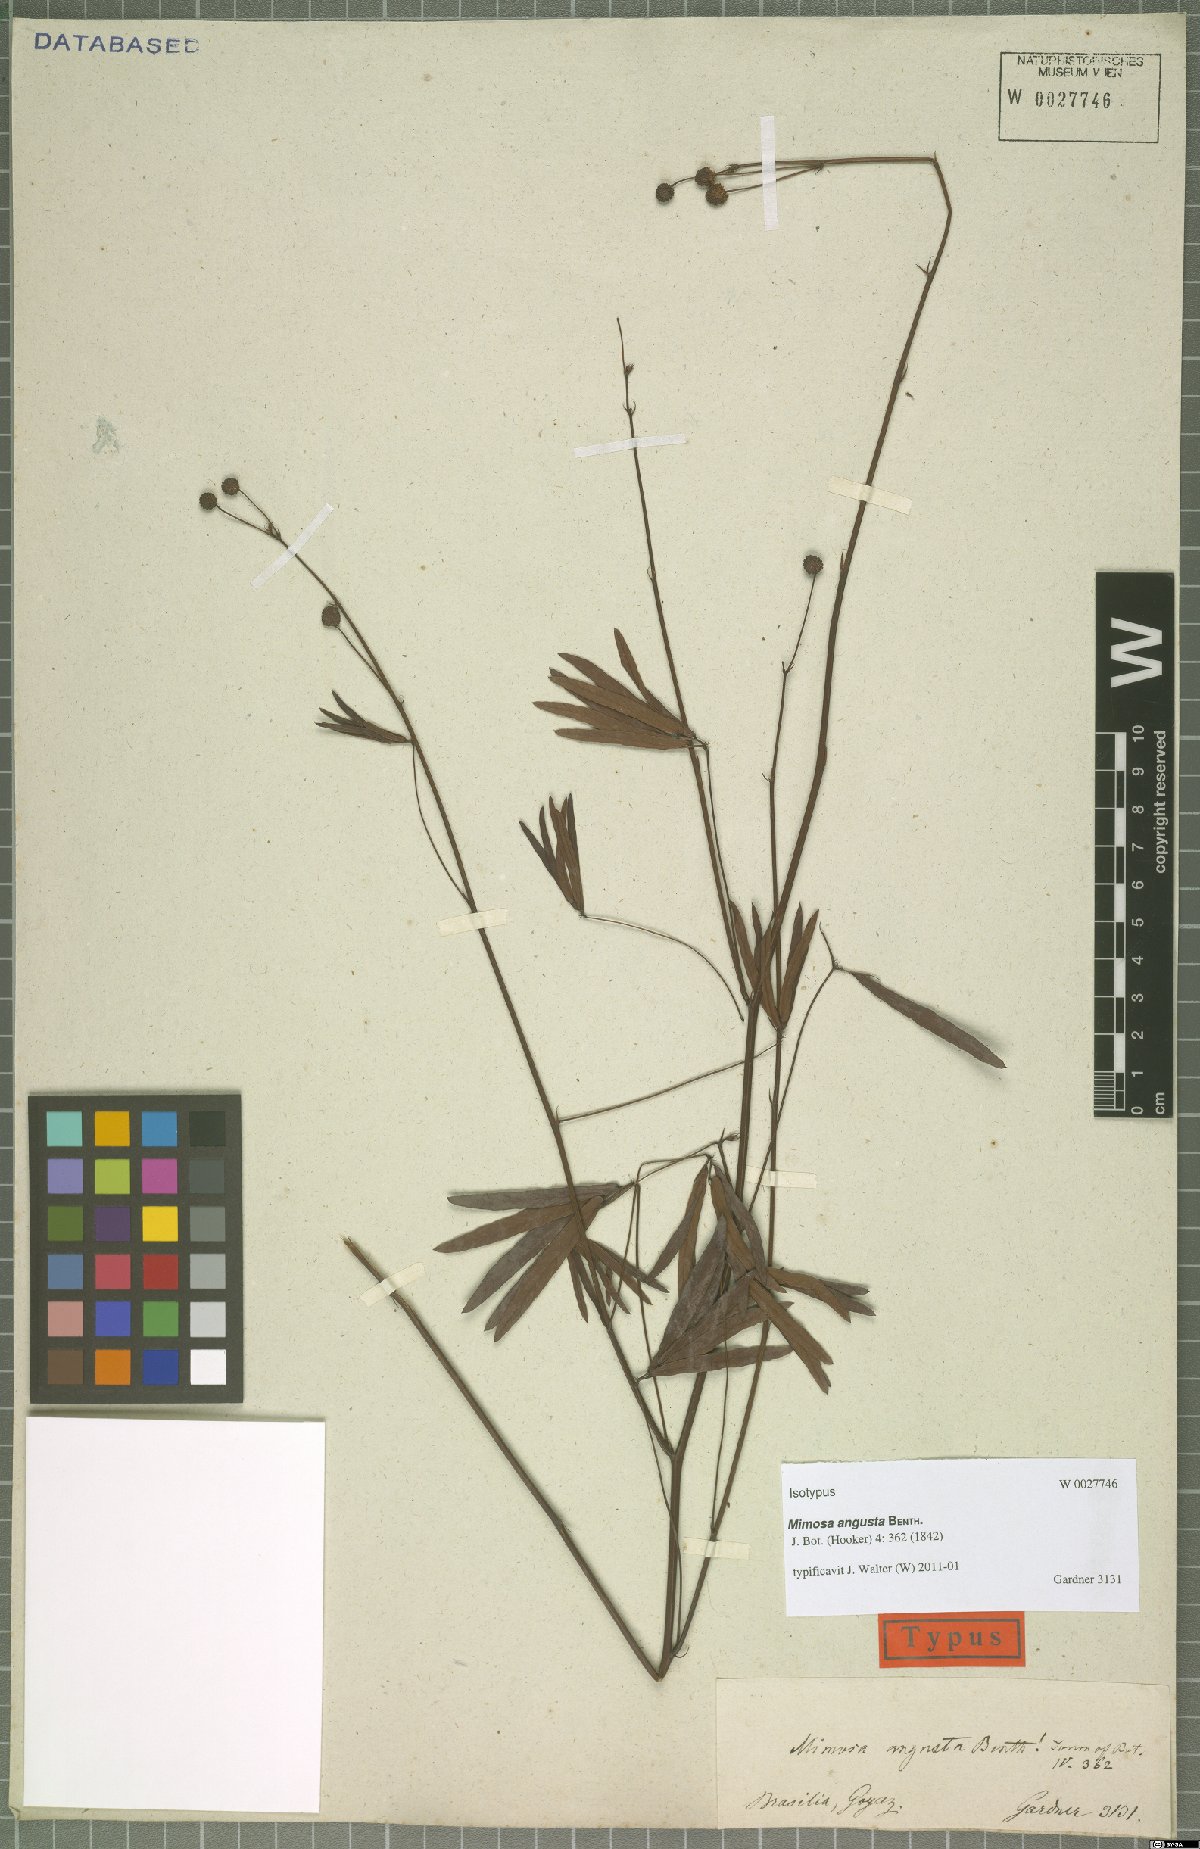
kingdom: Plantae
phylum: Tracheophyta
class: Magnoliopsida
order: Fabales
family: Fabaceae
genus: Mimosa
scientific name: Mimosa debilis
